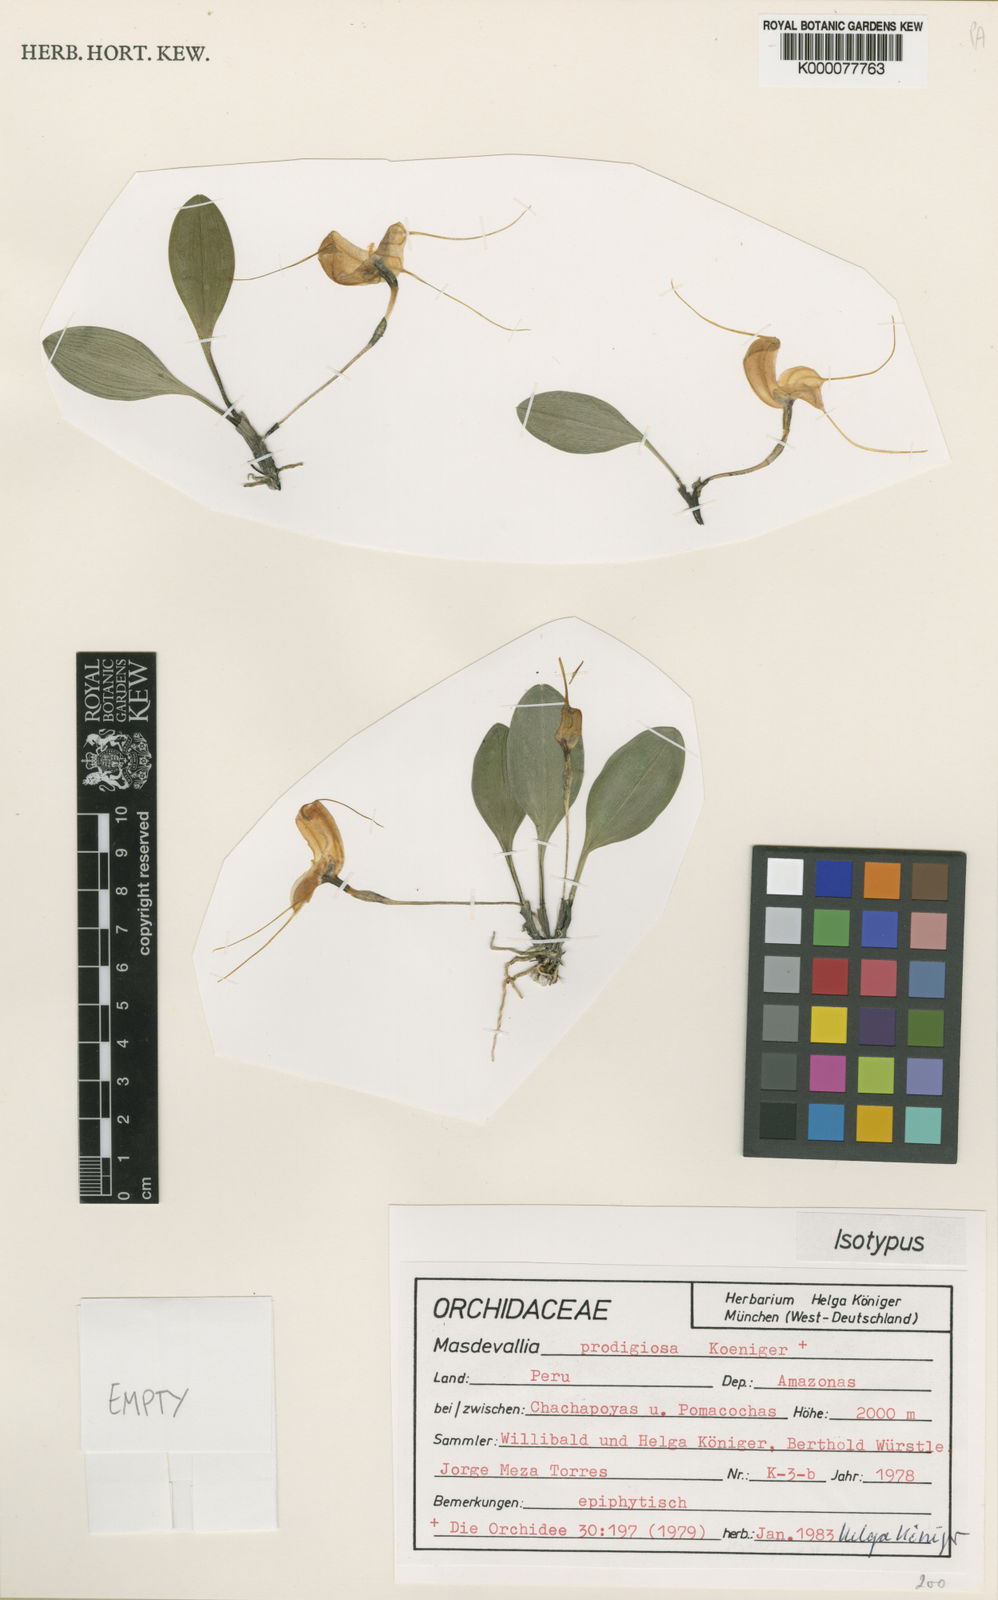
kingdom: Plantae
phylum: Tracheophyta
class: Liliopsida
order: Asparagales
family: Orchidaceae
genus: Masdevallia
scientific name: Masdevallia
